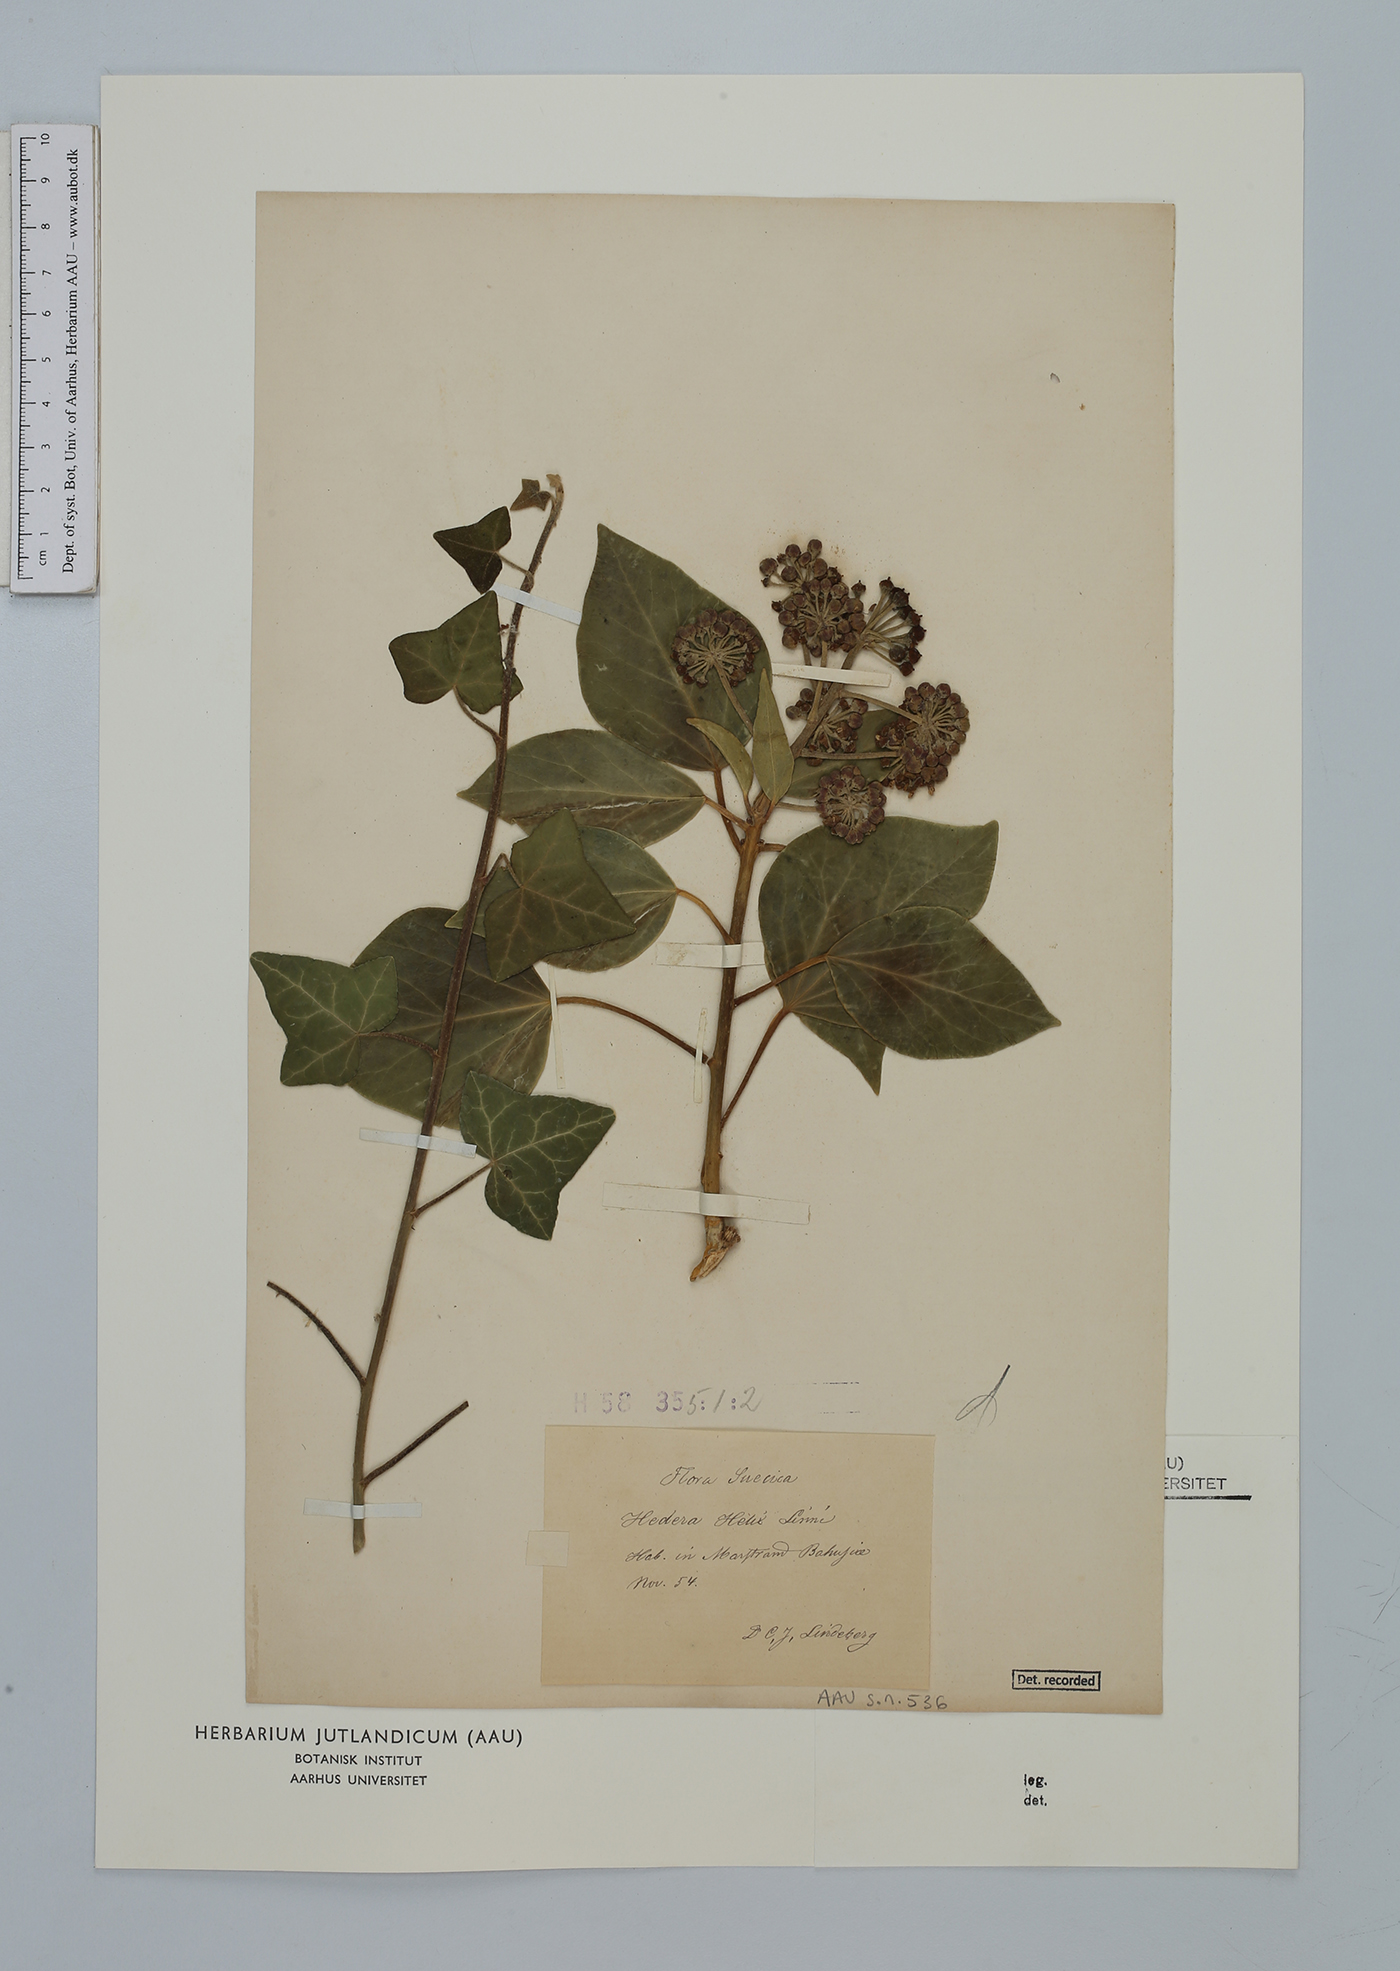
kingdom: Plantae
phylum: Tracheophyta
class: Magnoliopsida
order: Apiales
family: Araliaceae
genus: Hedera
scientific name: Hedera helix
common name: Ivy
